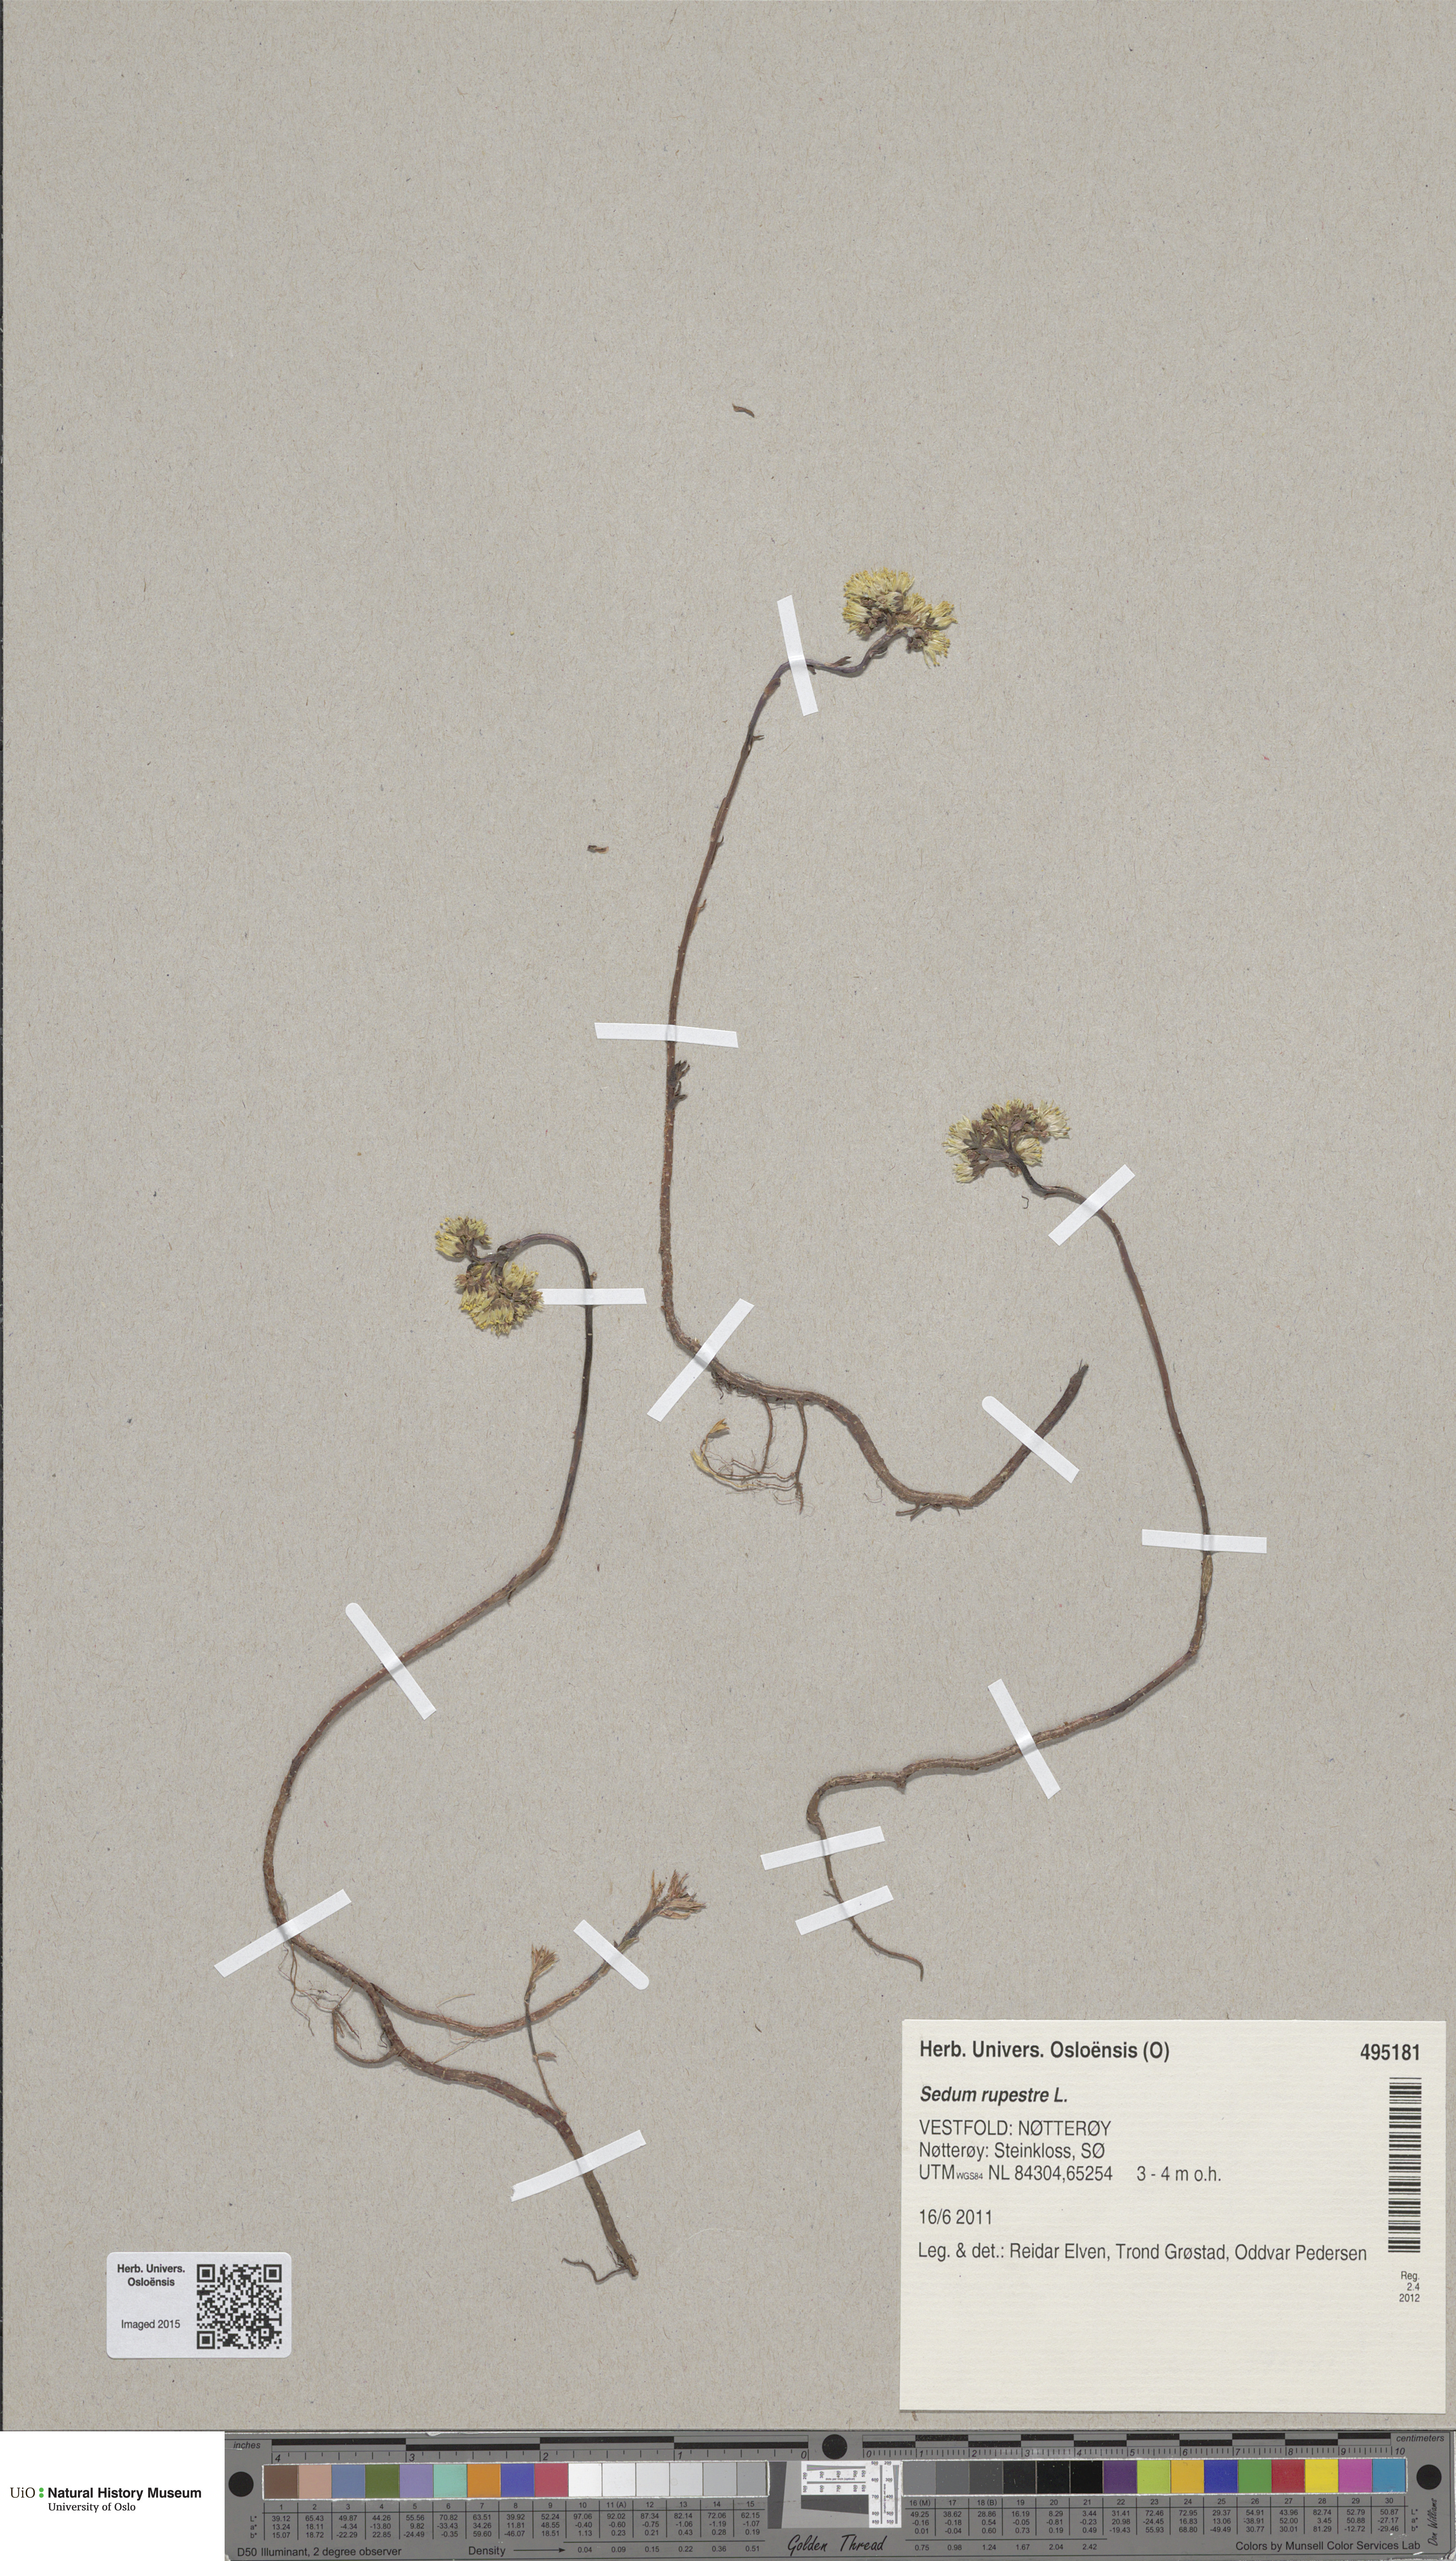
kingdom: Plantae
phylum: Tracheophyta
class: Magnoliopsida
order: Saxifragales
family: Crassulaceae
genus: Petrosedum
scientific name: Petrosedum rupestre
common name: Jenny's stonecrop
